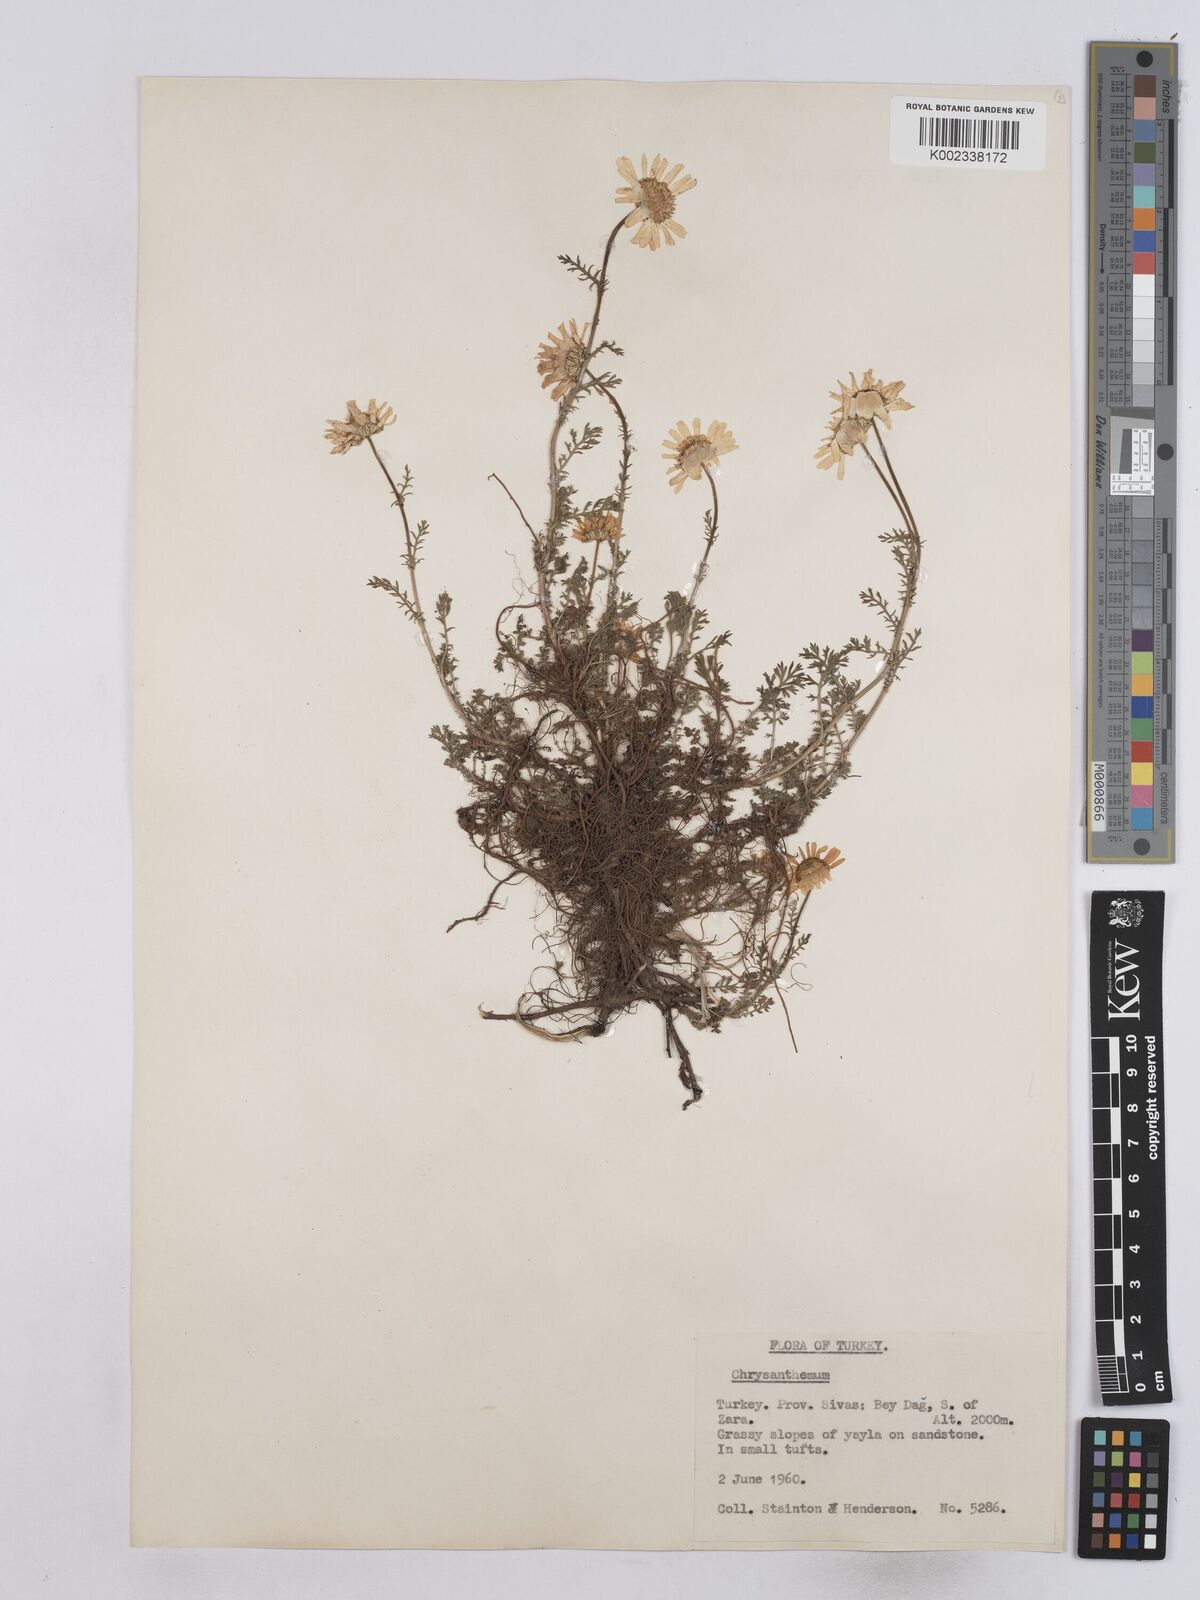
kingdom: Plantae
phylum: Tracheophyta
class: Magnoliopsida
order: Asterales
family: Asteraceae
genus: Matricaria
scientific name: Matricaria
